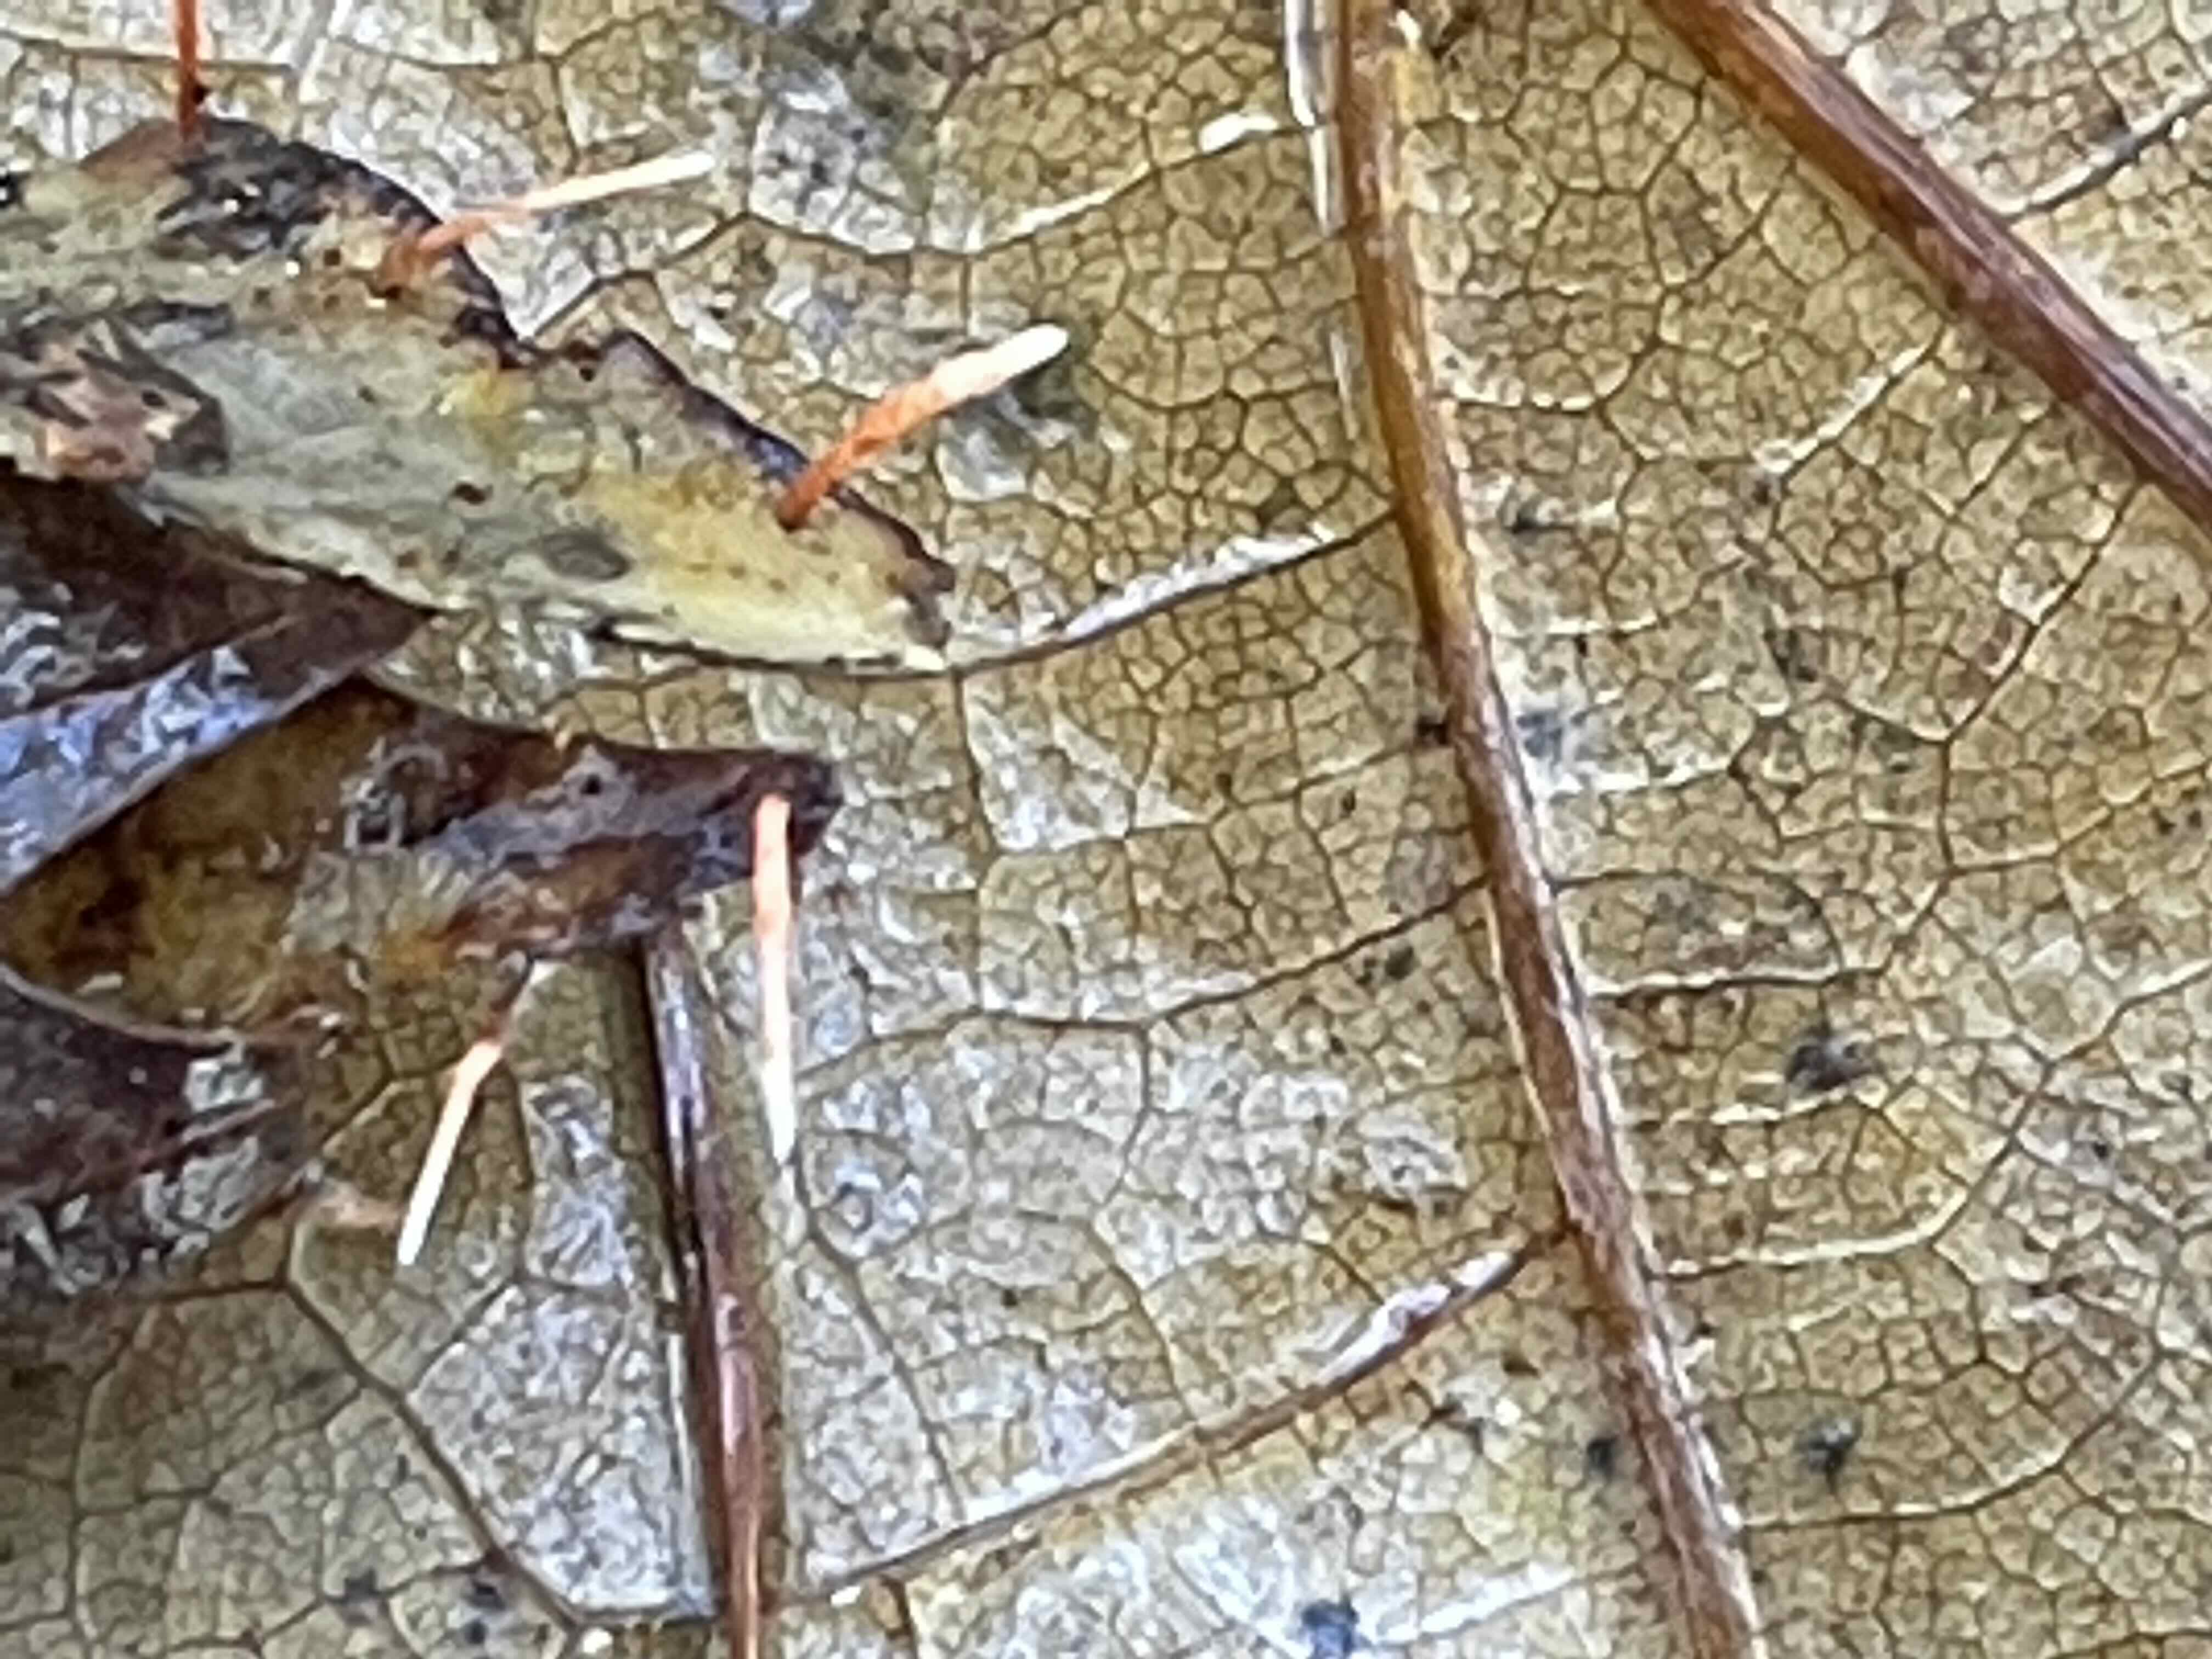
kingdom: Fungi
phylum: Ascomycota
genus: Anthina
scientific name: Anthina flammea
